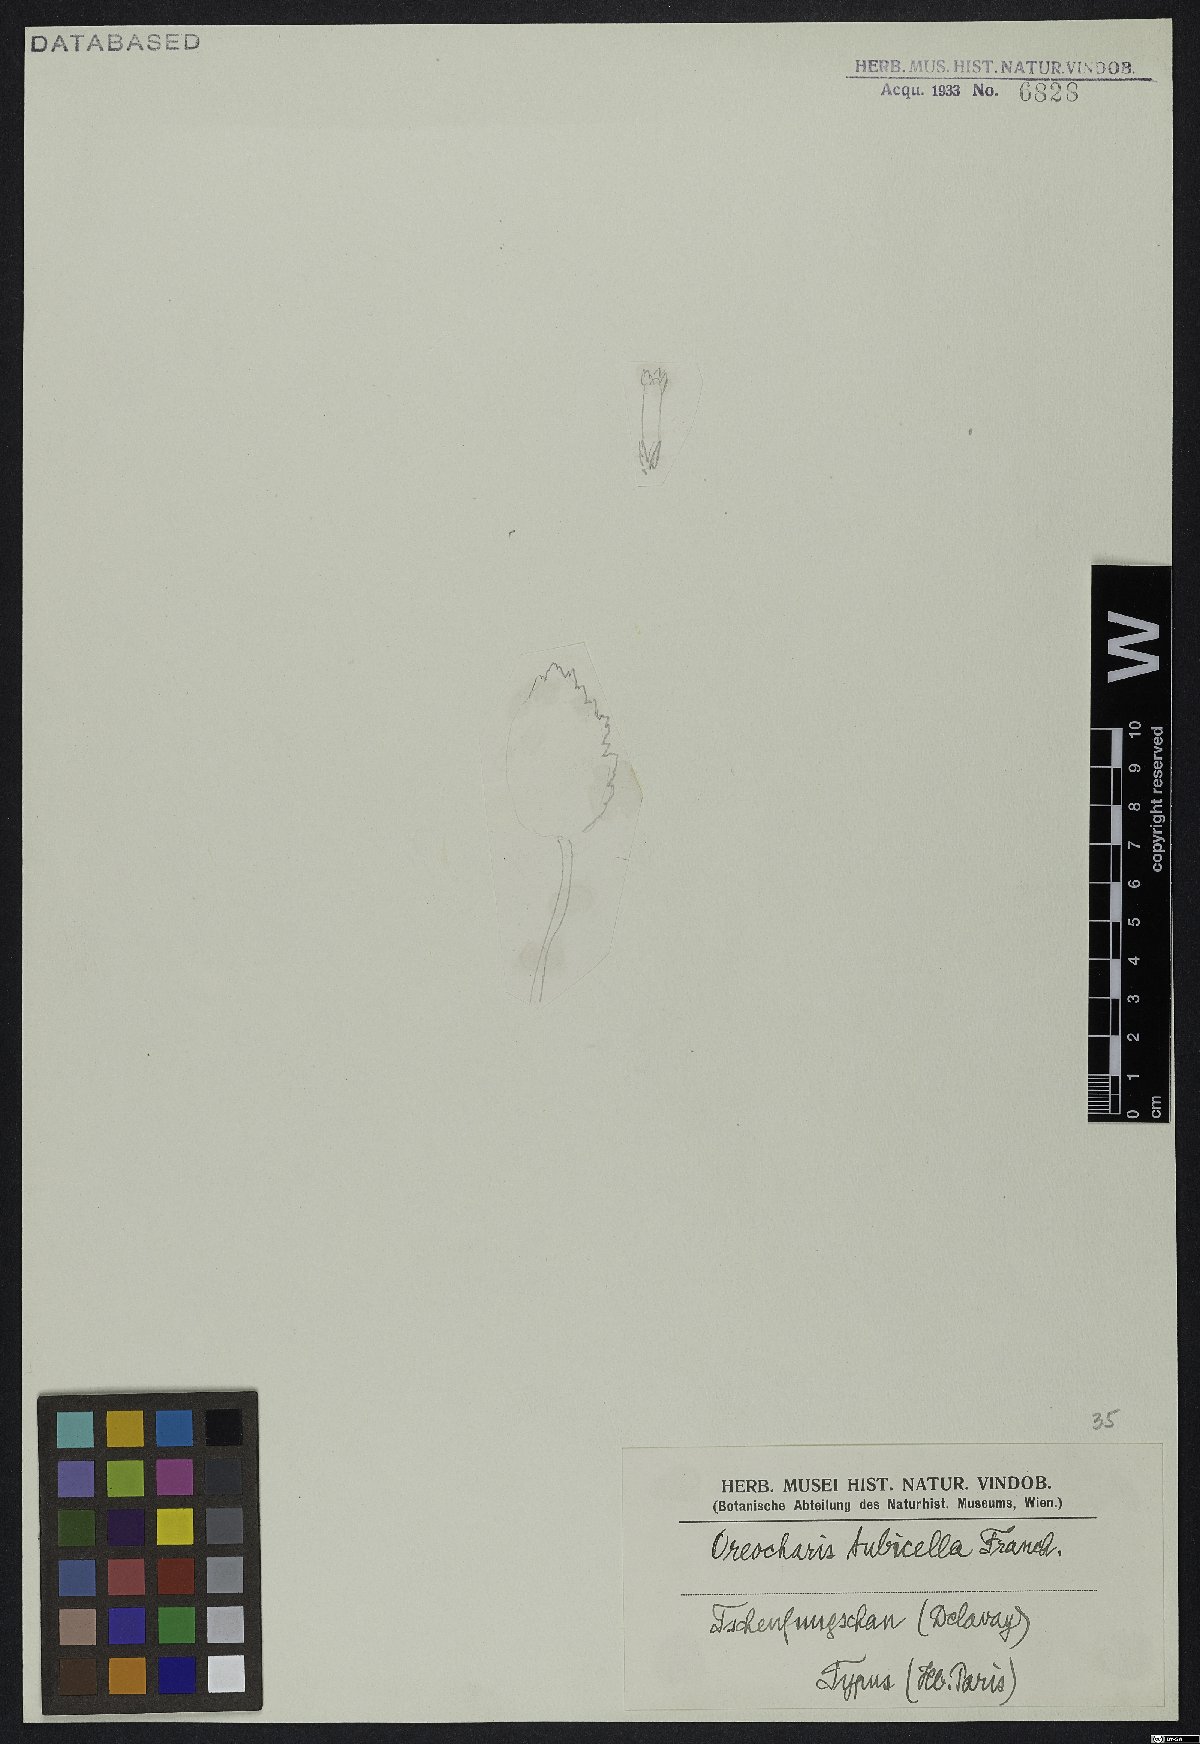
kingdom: Plantae
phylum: Tracheophyta
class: Magnoliopsida
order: Lamiales
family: Gesneriaceae
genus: Oreocharis
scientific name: Oreocharis tubicella
